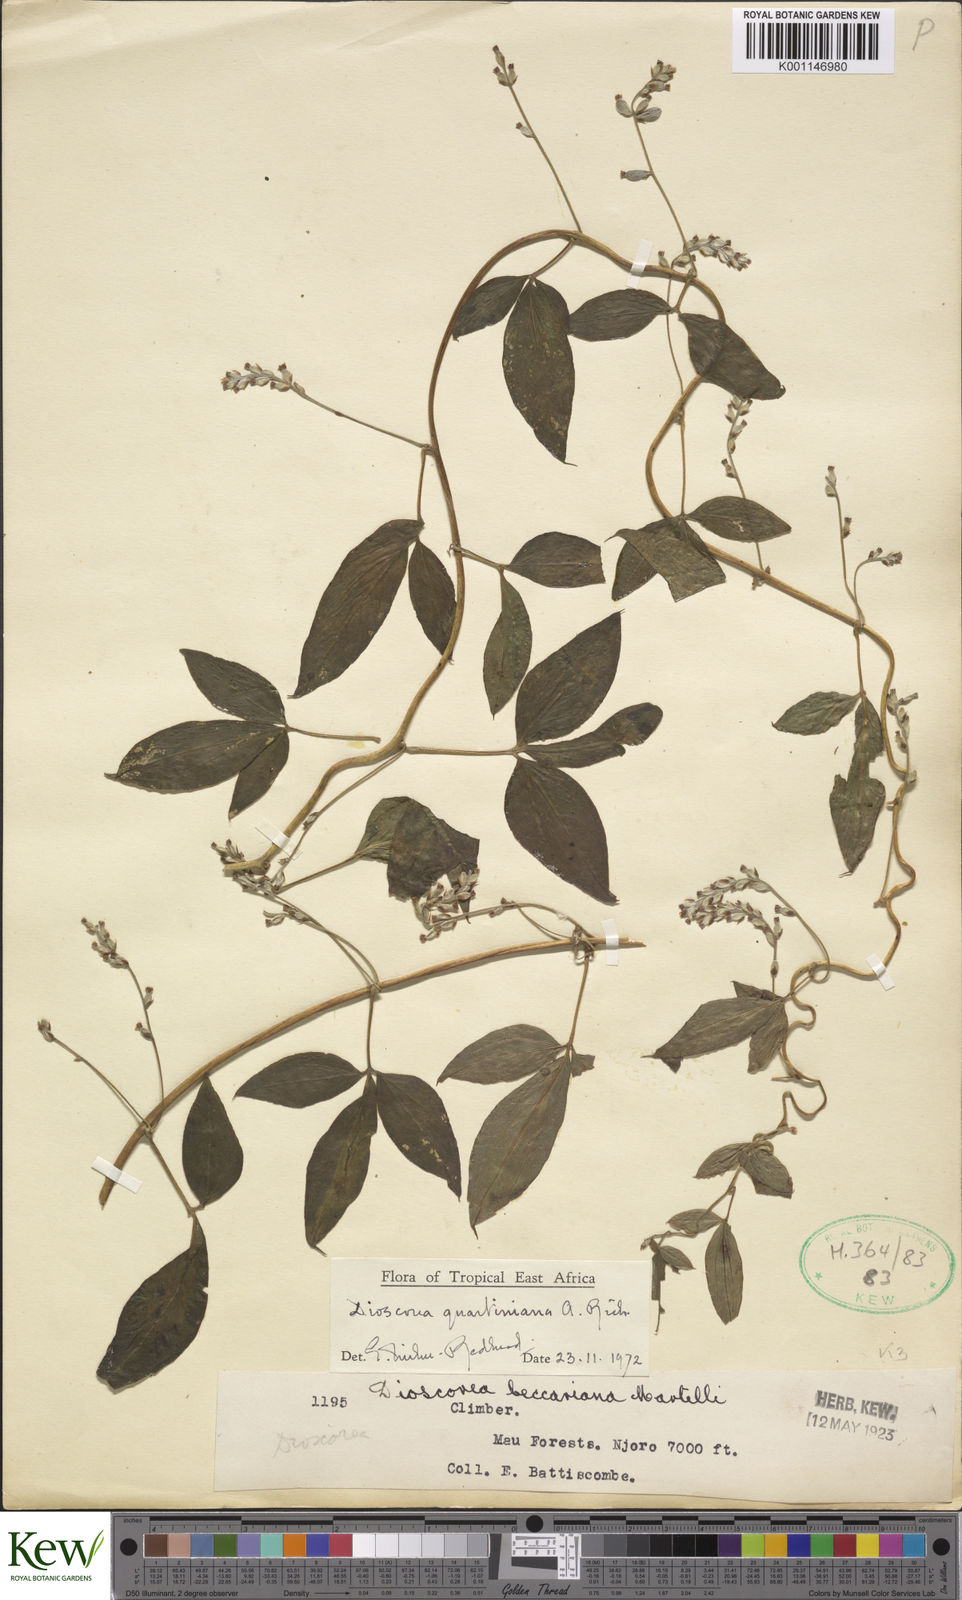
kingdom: Plantae
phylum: Tracheophyta
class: Liliopsida
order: Dioscoreales
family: Dioscoreaceae
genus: Dioscorea
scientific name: Dioscorea quartiniana
